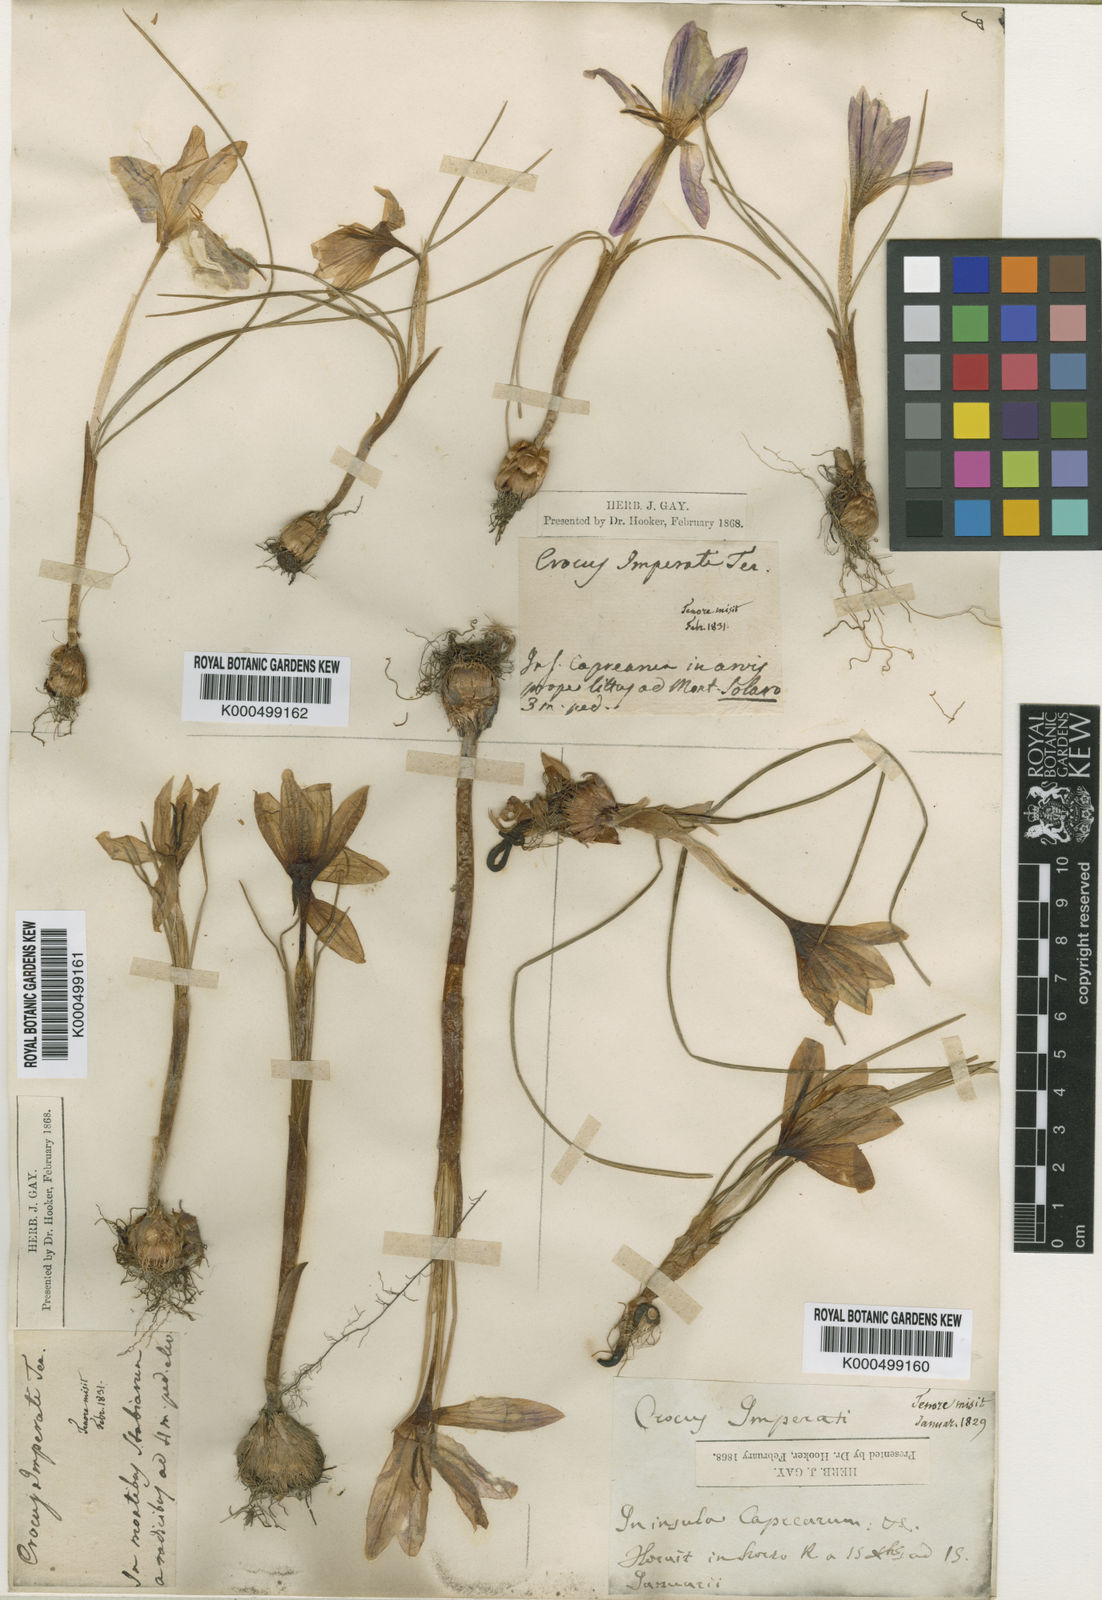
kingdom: Plantae
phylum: Tracheophyta
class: Liliopsida
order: Asparagales
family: Iridaceae
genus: Crocus
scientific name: Crocus imperati
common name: Early crocus
